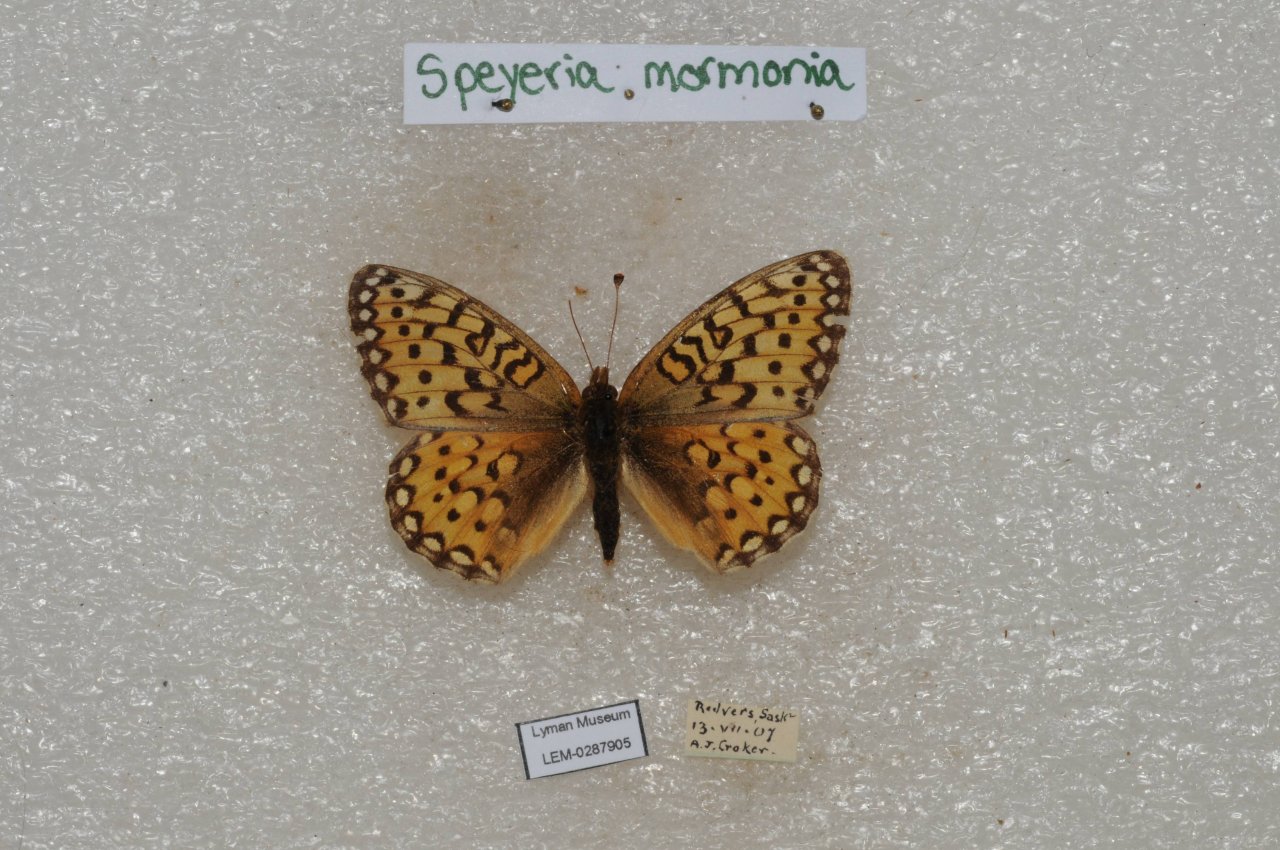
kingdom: Animalia
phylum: Arthropoda
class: Insecta
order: Lepidoptera
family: Nymphalidae
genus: Speyeria
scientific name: Speyeria mormonia
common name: Mormon Fritillary
